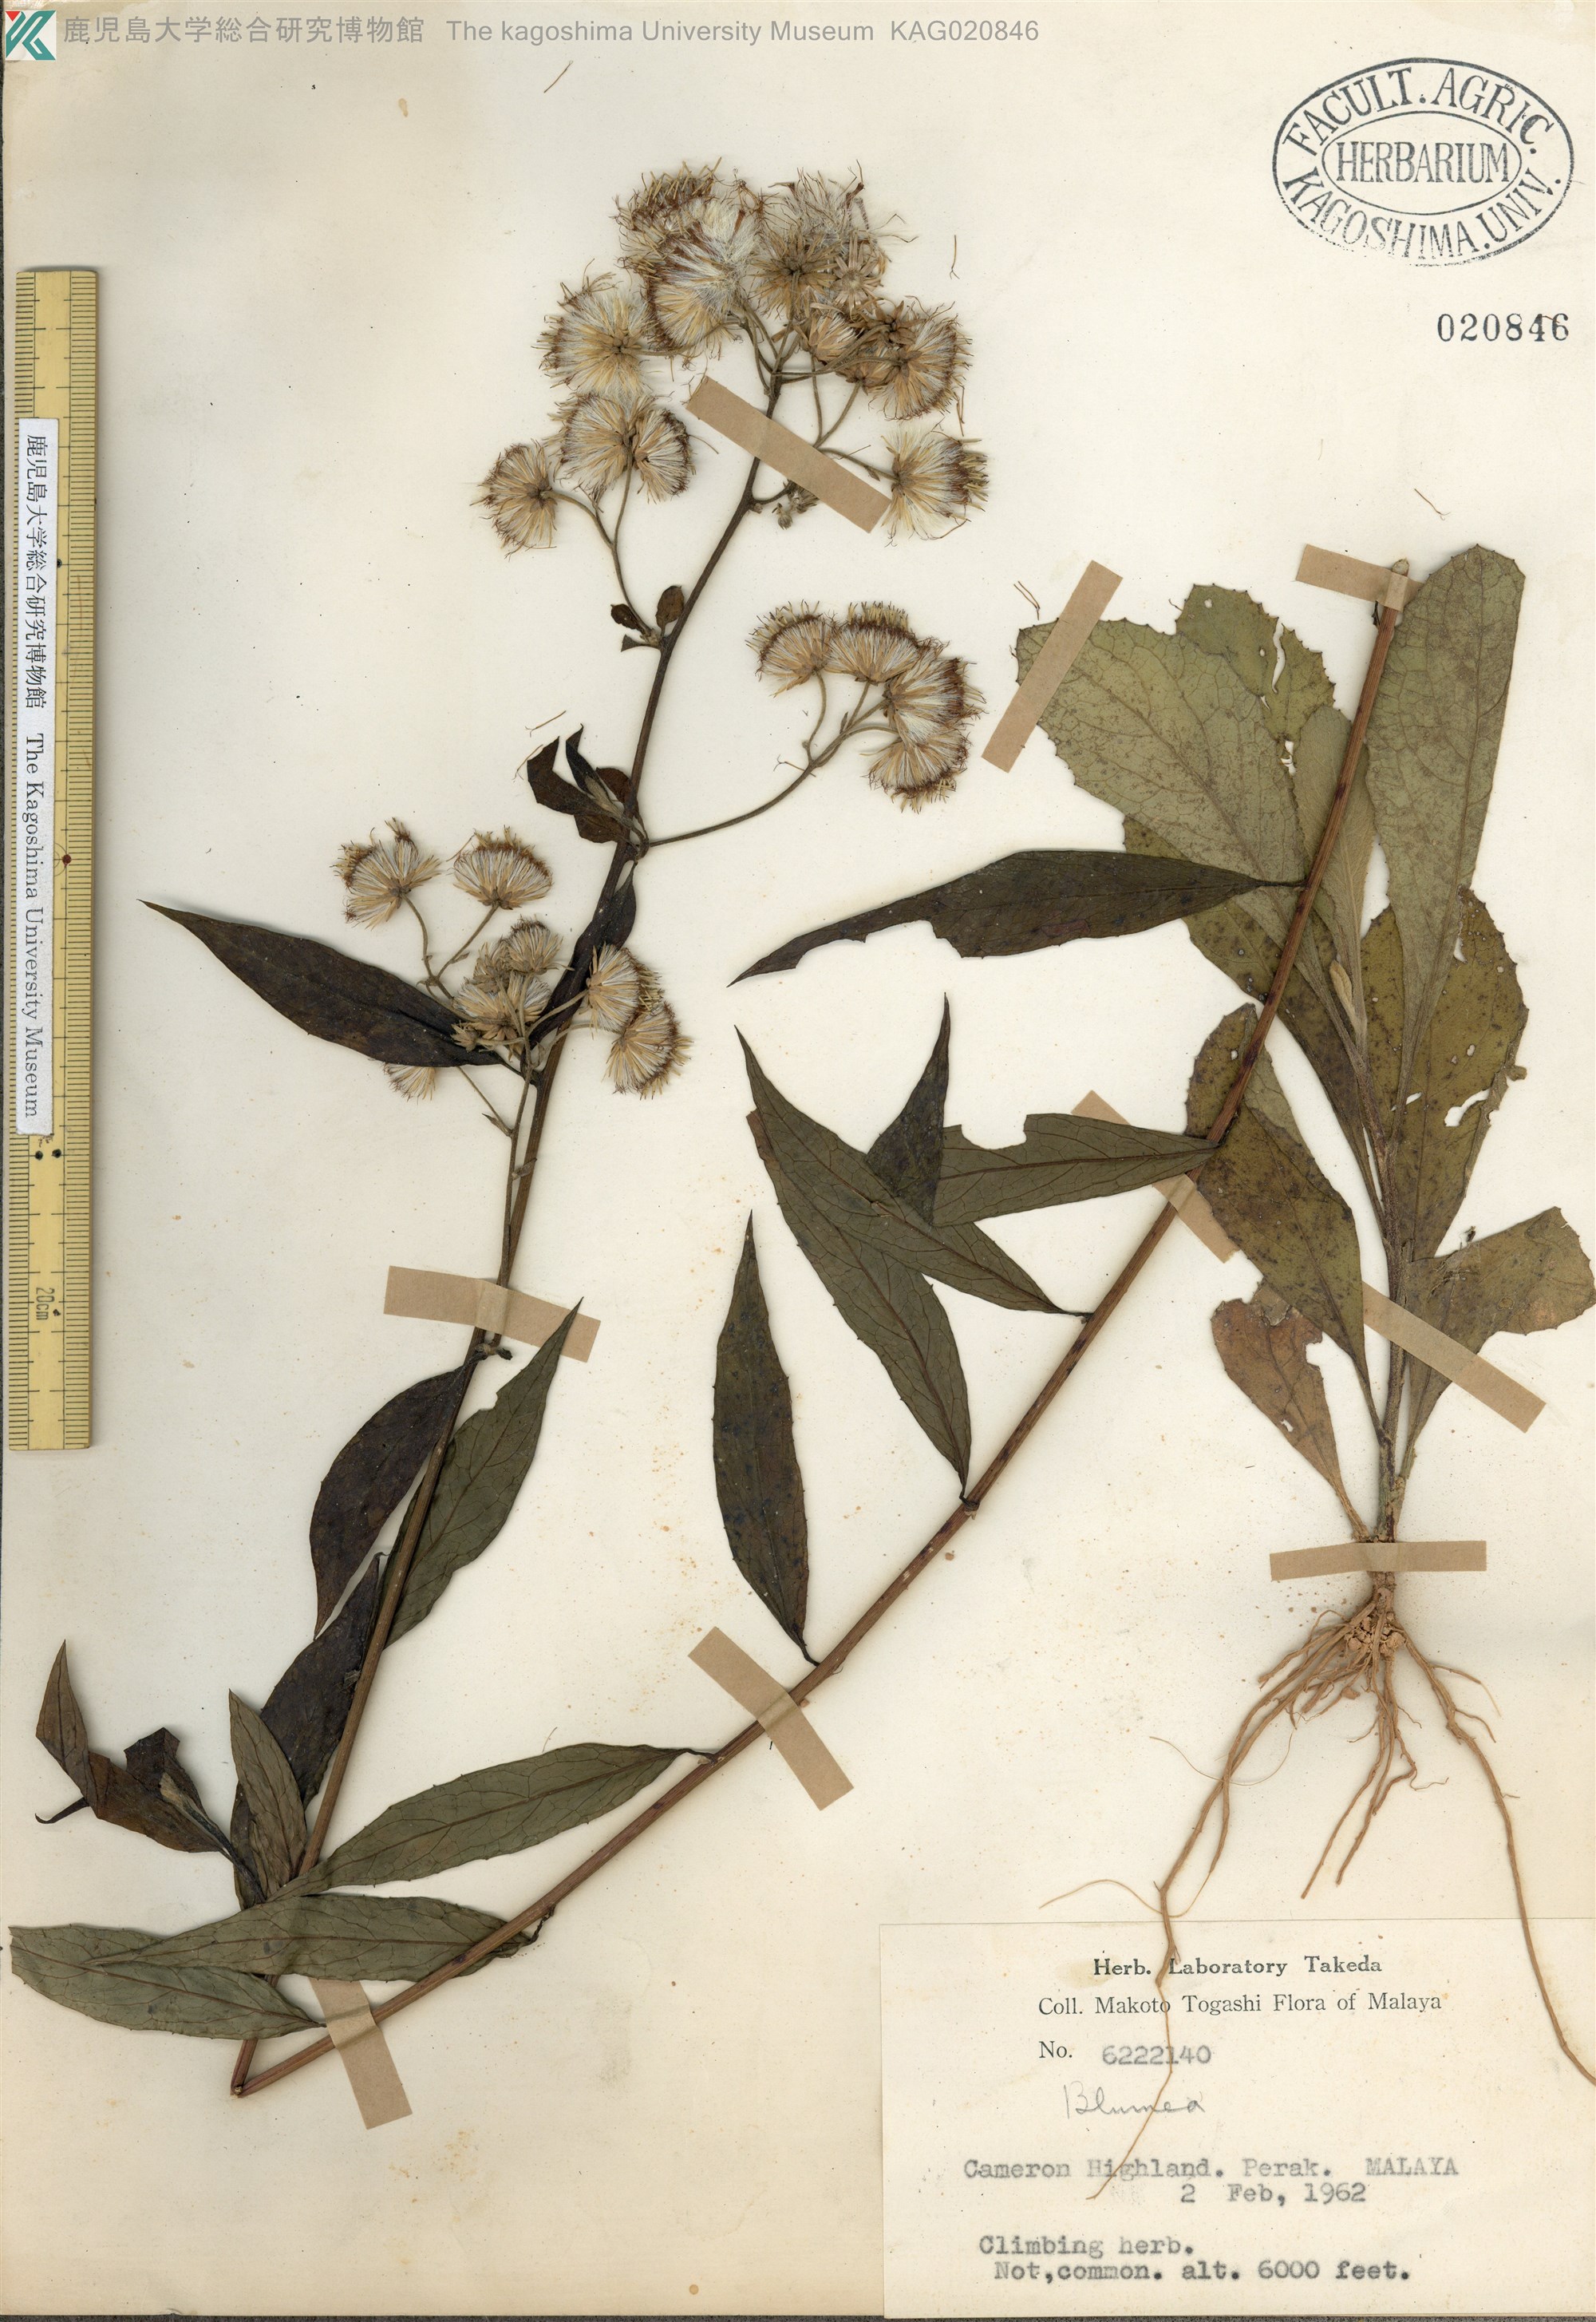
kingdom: Plantae
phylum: Tracheophyta
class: Magnoliopsida
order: Asterales
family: Asteraceae
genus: Blumea
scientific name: Blumea
